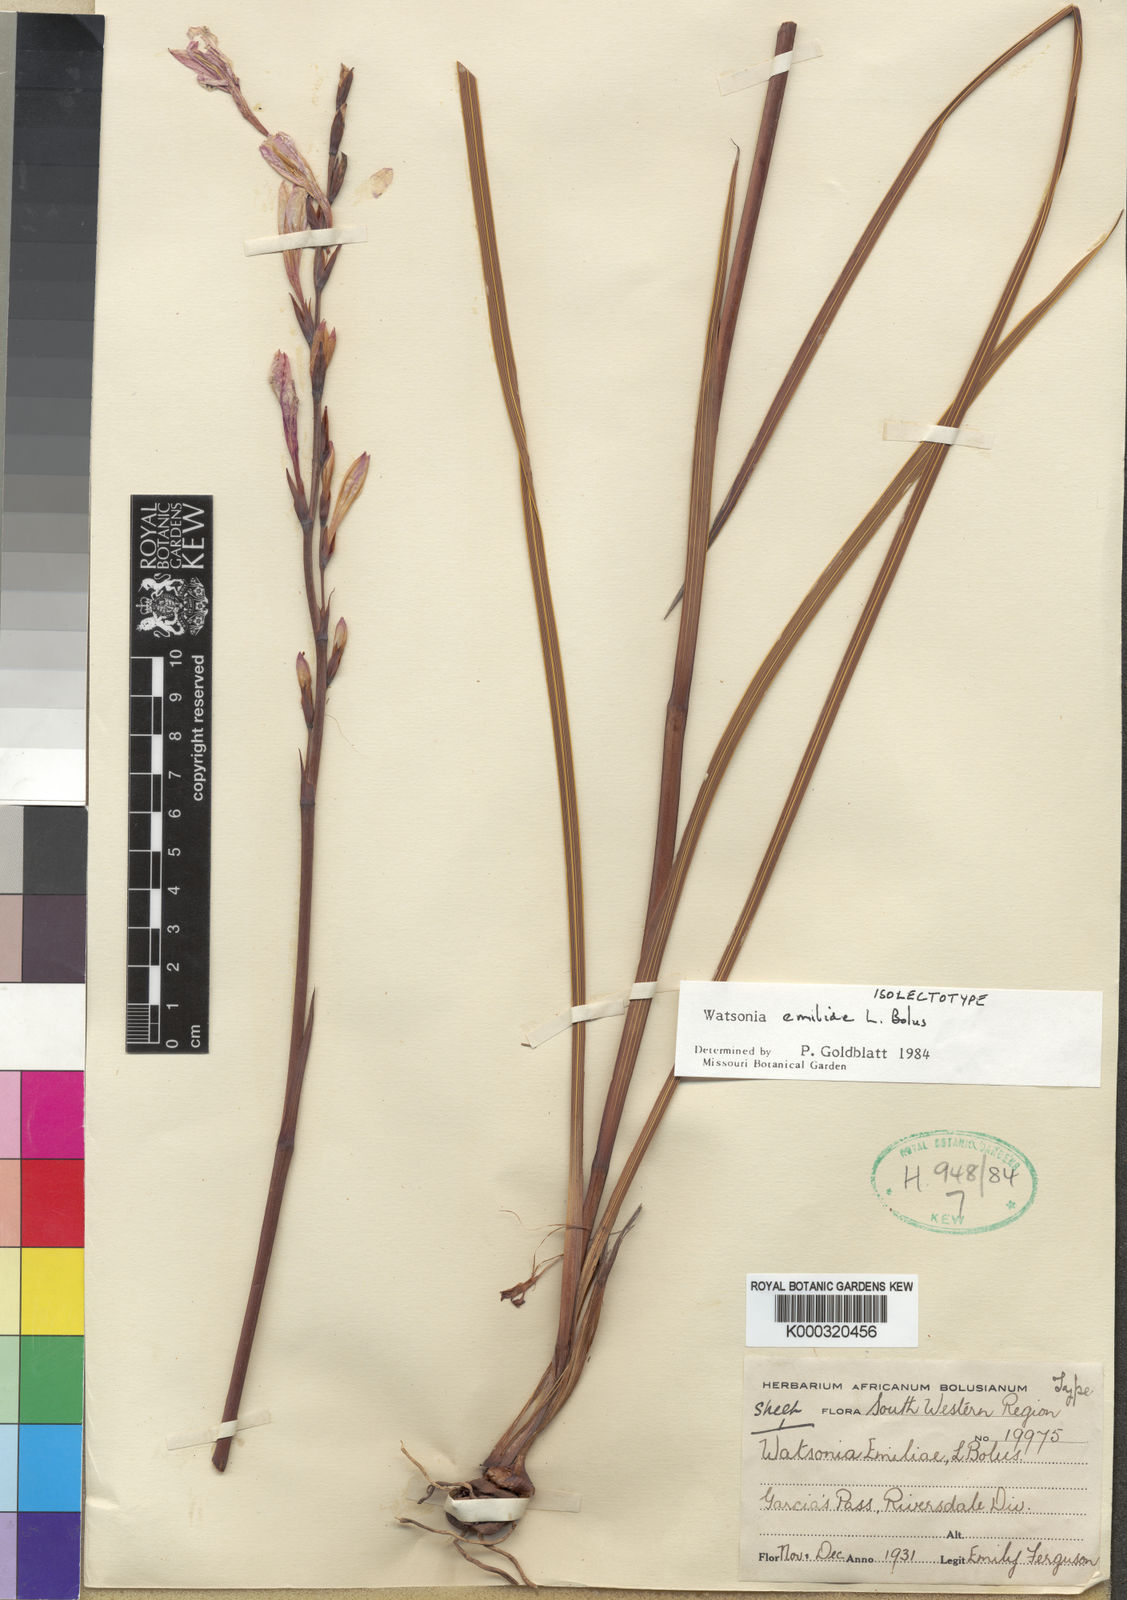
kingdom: Plantae
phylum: Tracheophyta
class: Liliopsida
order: Asparagales
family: Iridaceae
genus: Watsonia
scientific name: Watsonia emiliae
